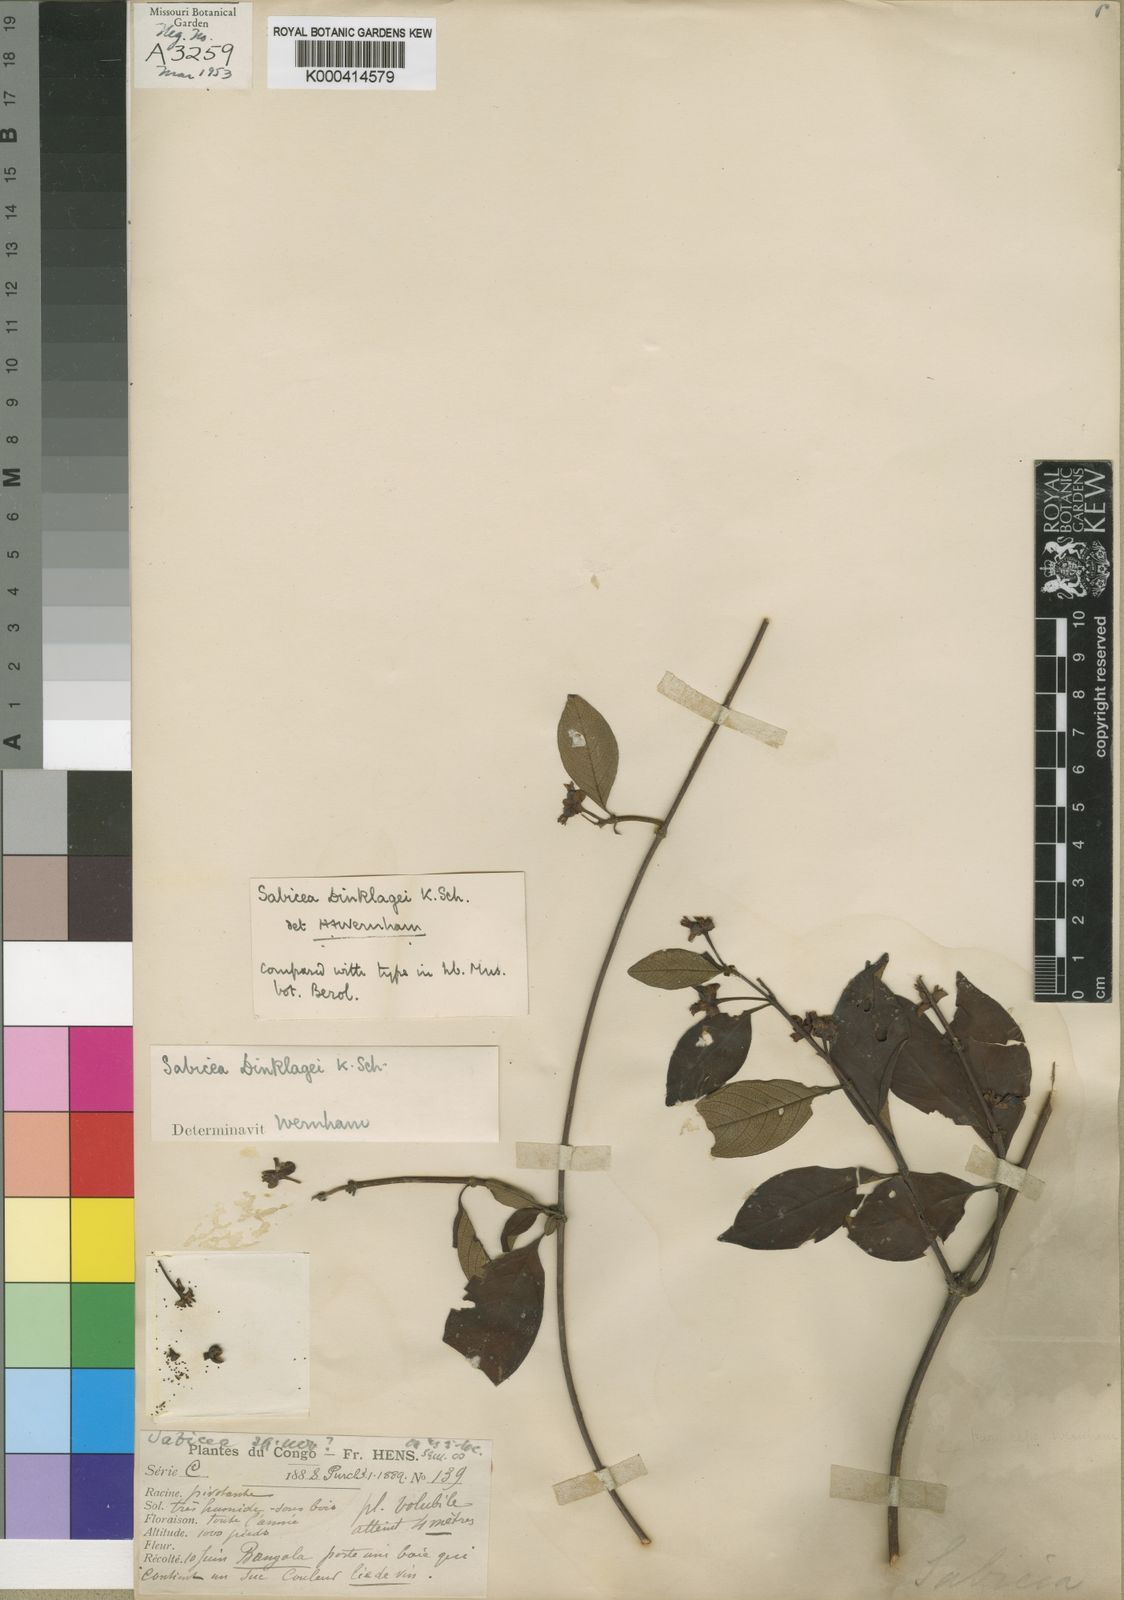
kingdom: Plantae
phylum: Tracheophyta
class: Magnoliopsida
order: Gentianales
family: Rubiaceae
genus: Sabicea
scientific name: Sabicea dinklagei
